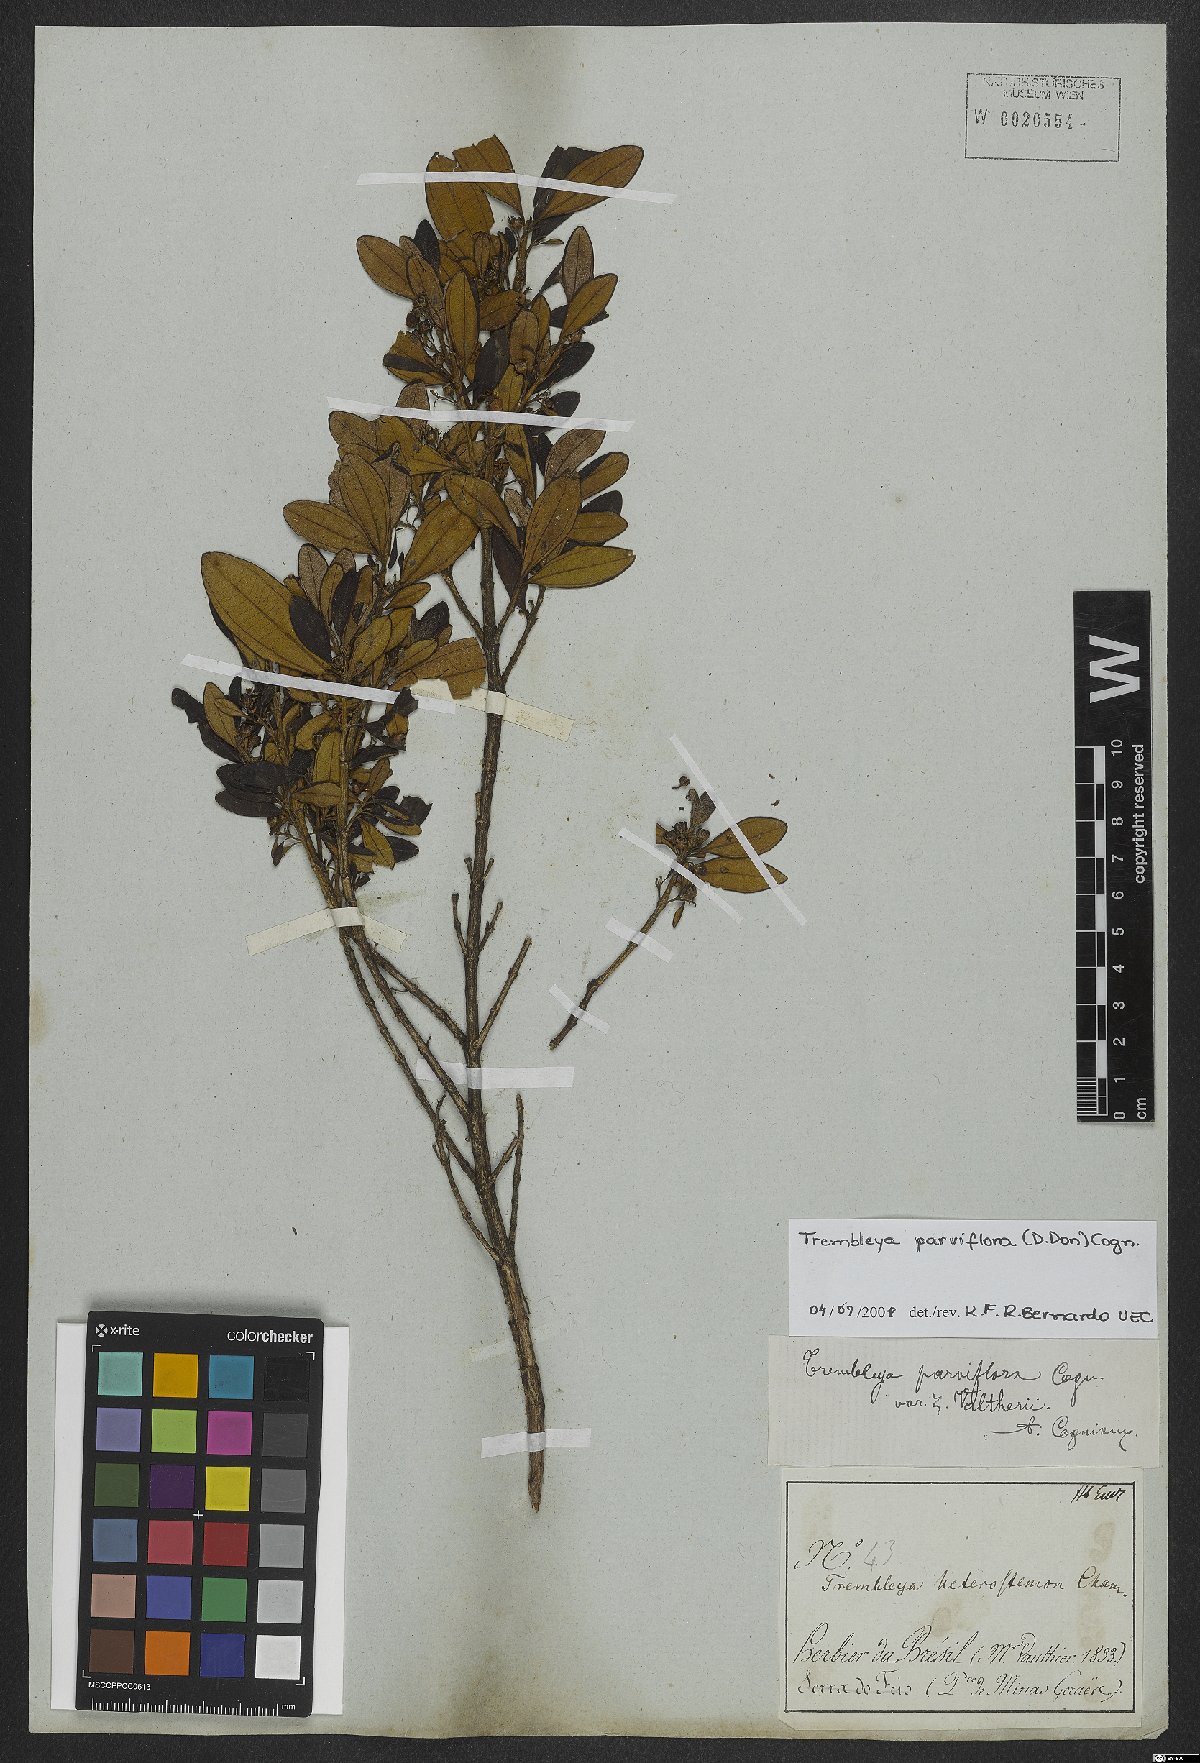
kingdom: Plantae
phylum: Tracheophyta
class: Magnoliopsida
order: Myrtales
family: Melastomataceae
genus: Microlicia
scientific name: Microlicia parviflora
